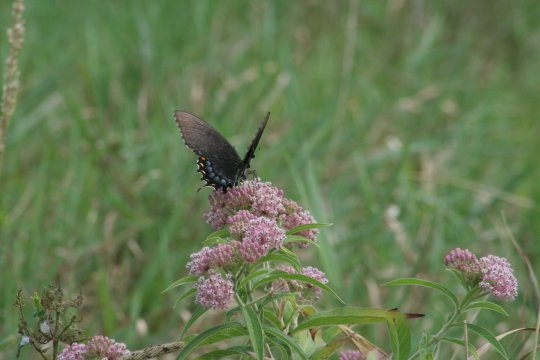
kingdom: Animalia
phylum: Arthropoda
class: Insecta
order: Lepidoptera
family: Papilionidae
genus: Pterourus
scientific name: Pterourus glaucus
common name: Eastern Tiger Swallowtail
